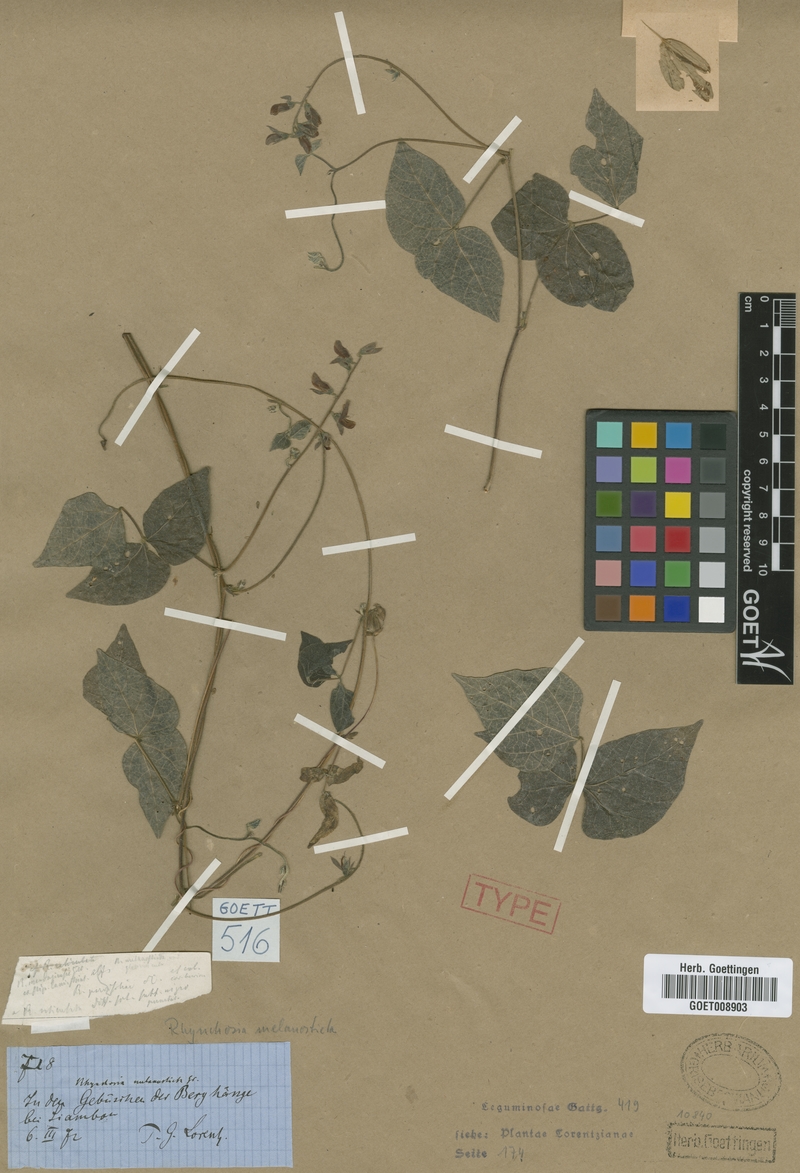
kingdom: Plantae
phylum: Tracheophyta
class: Magnoliopsida
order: Fabales
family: Fabaceae
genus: Rhynchosia
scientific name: Rhynchosia edulis
